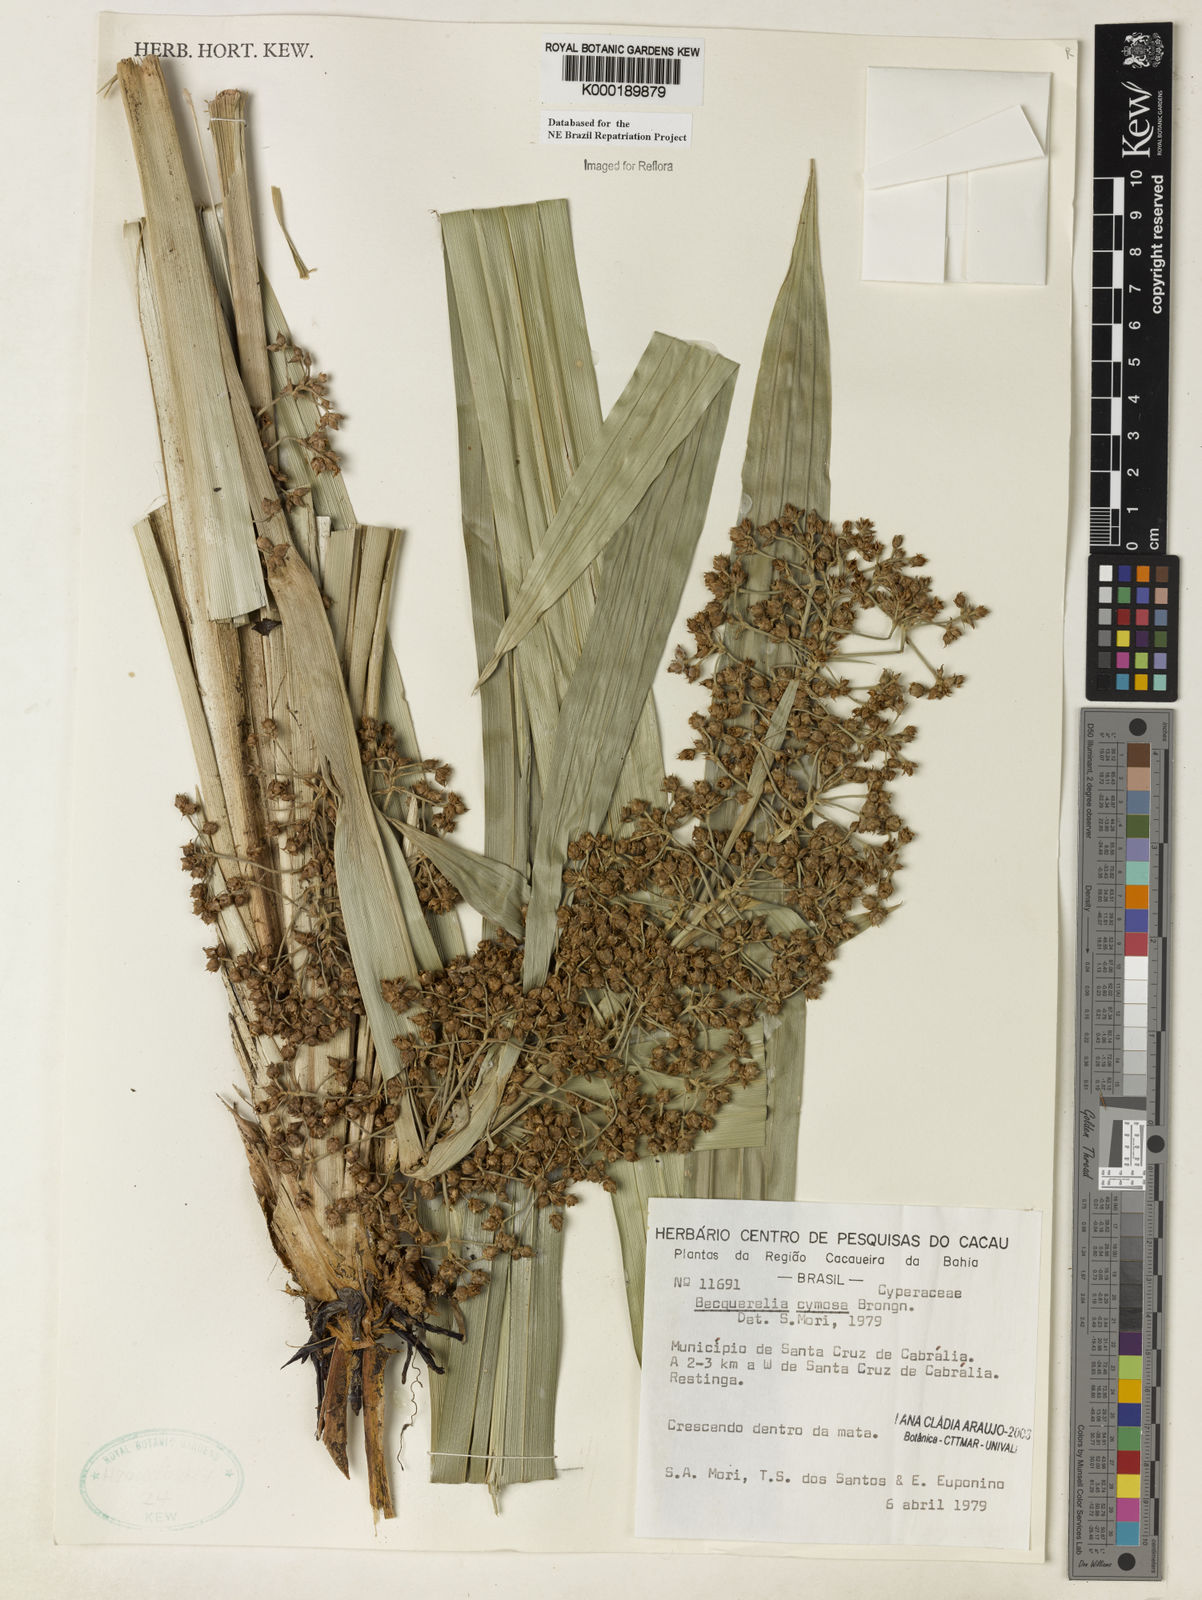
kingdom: Plantae
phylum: Tracheophyta
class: Liliopsida
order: Poales
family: Cyperaceae
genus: Becquerelia
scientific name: Becquerelia cymosa
